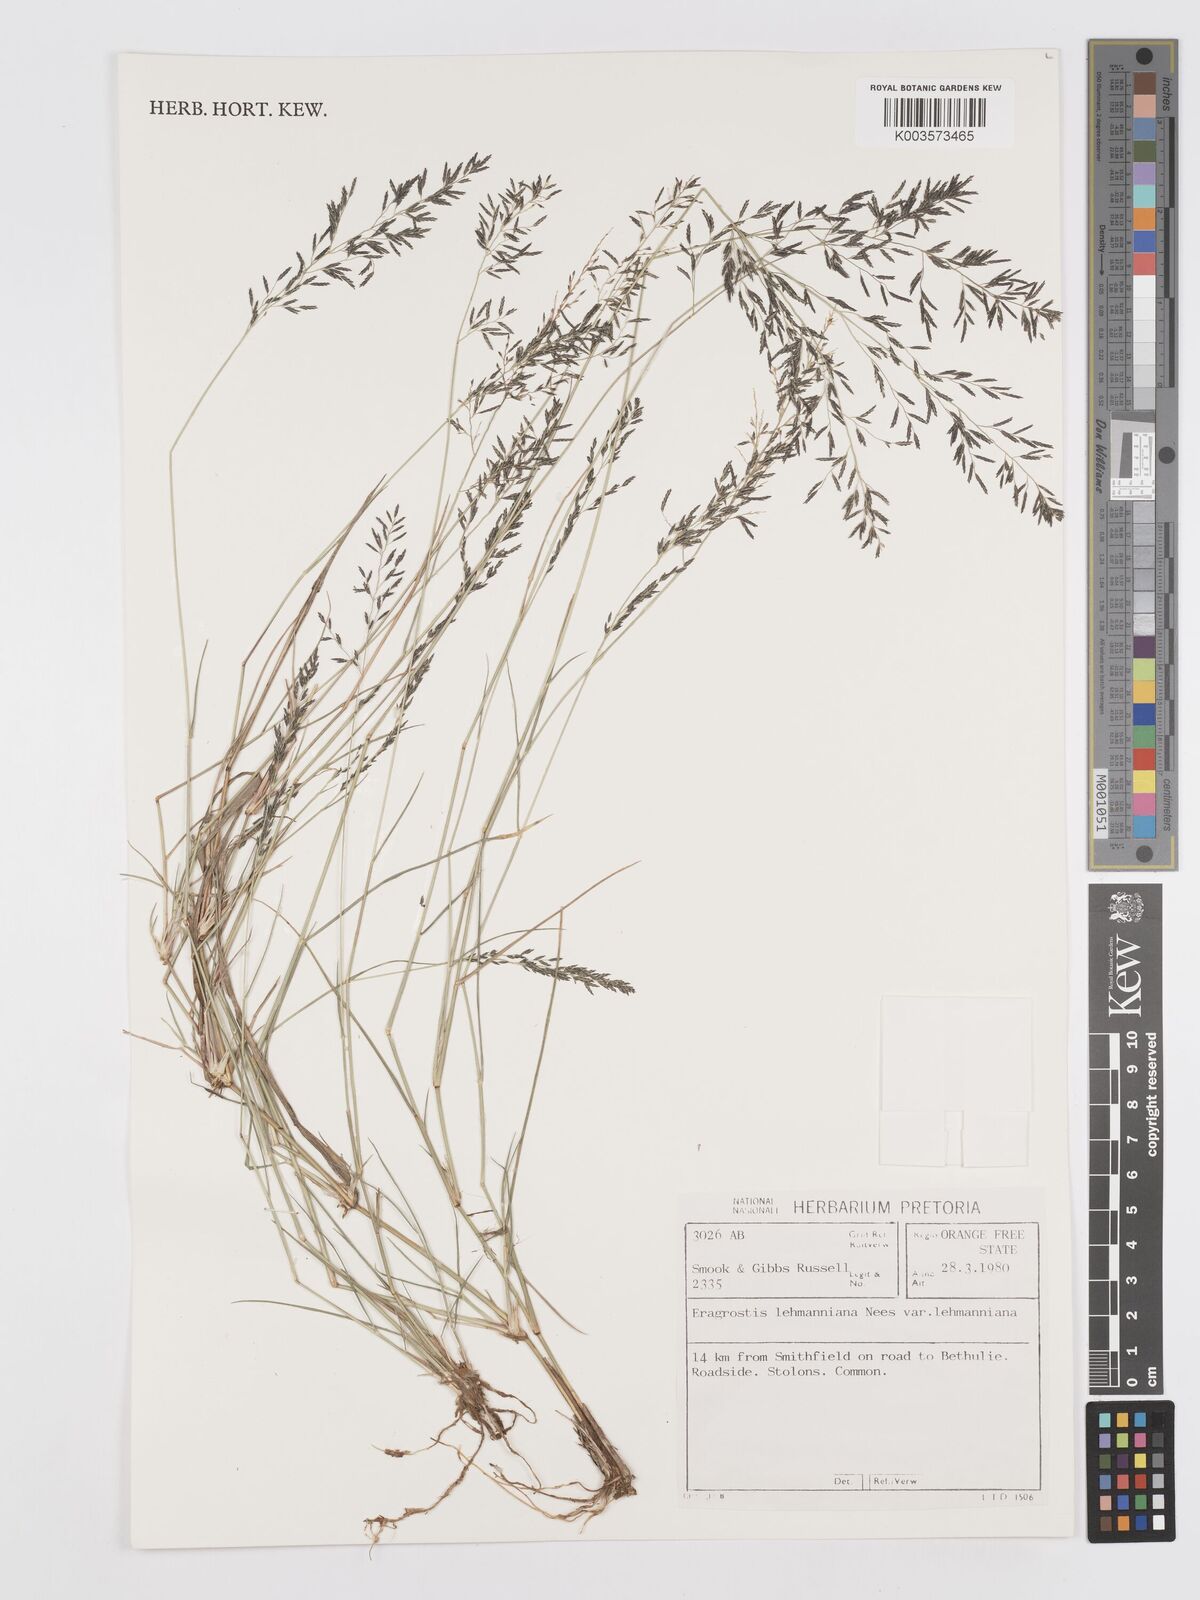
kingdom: Plantae
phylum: Tracheophyta
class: Liliopsida
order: Poales
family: Poaceae
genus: Eragrostis
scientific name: Eragrostis lehmanniana
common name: Lehmann lovegrass
